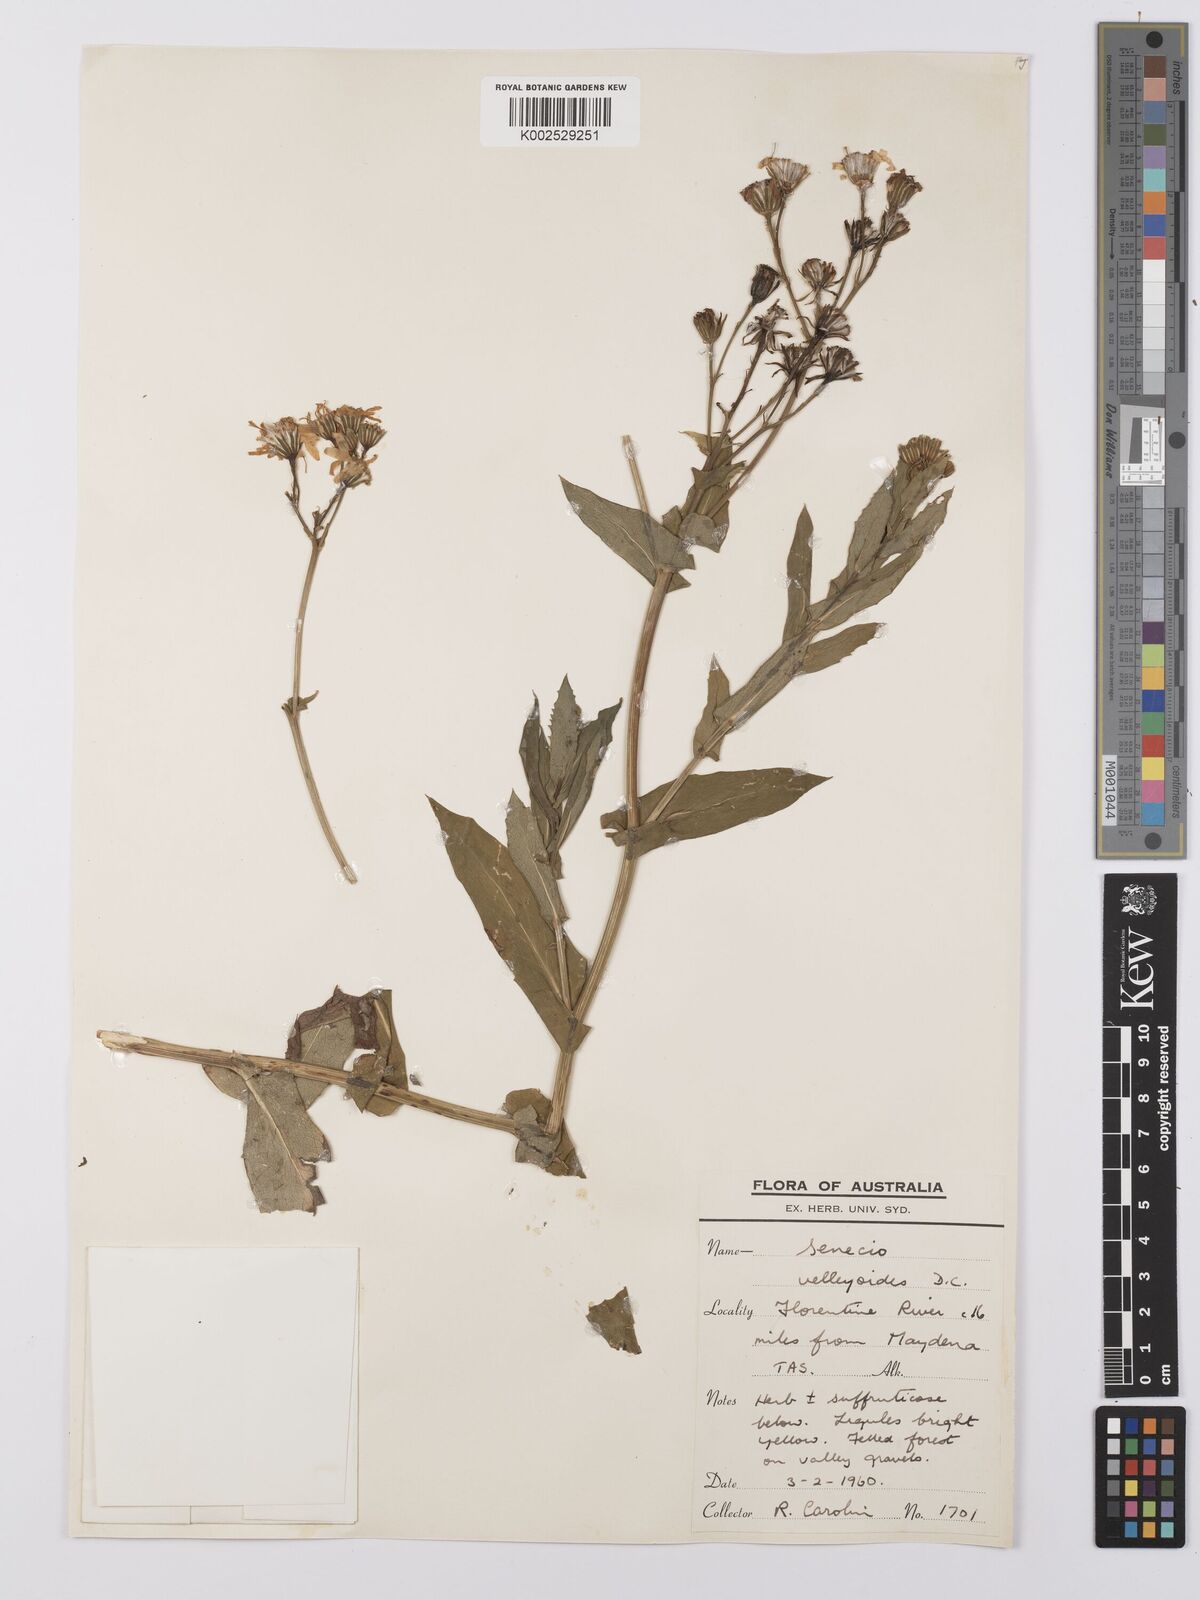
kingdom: Plantae
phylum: Tracheophyta
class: Magnoliopsida
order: Asterales
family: Asteraceae
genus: Lordhowea
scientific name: Lordhowea velleioides
